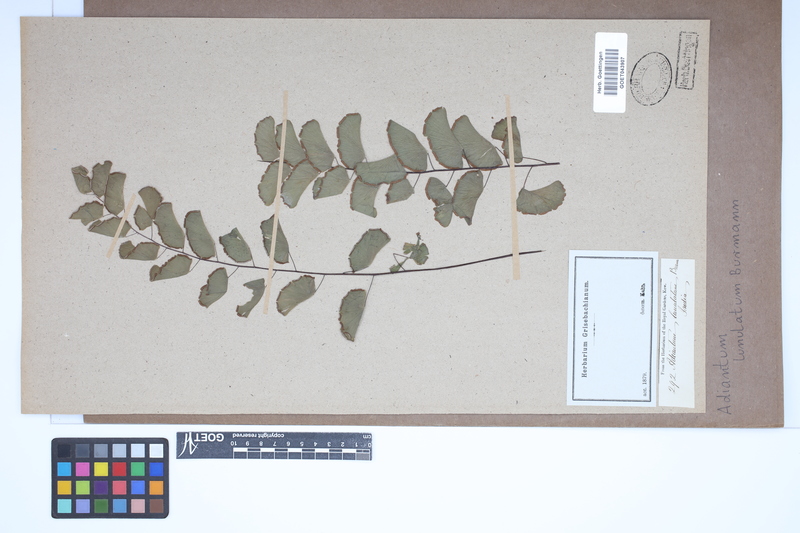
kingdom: Plantae
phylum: Tracheophyta
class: Polypodiopsida
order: Polypodiales
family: Pteridaceae
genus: Adiantum
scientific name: Adiantum philippense
